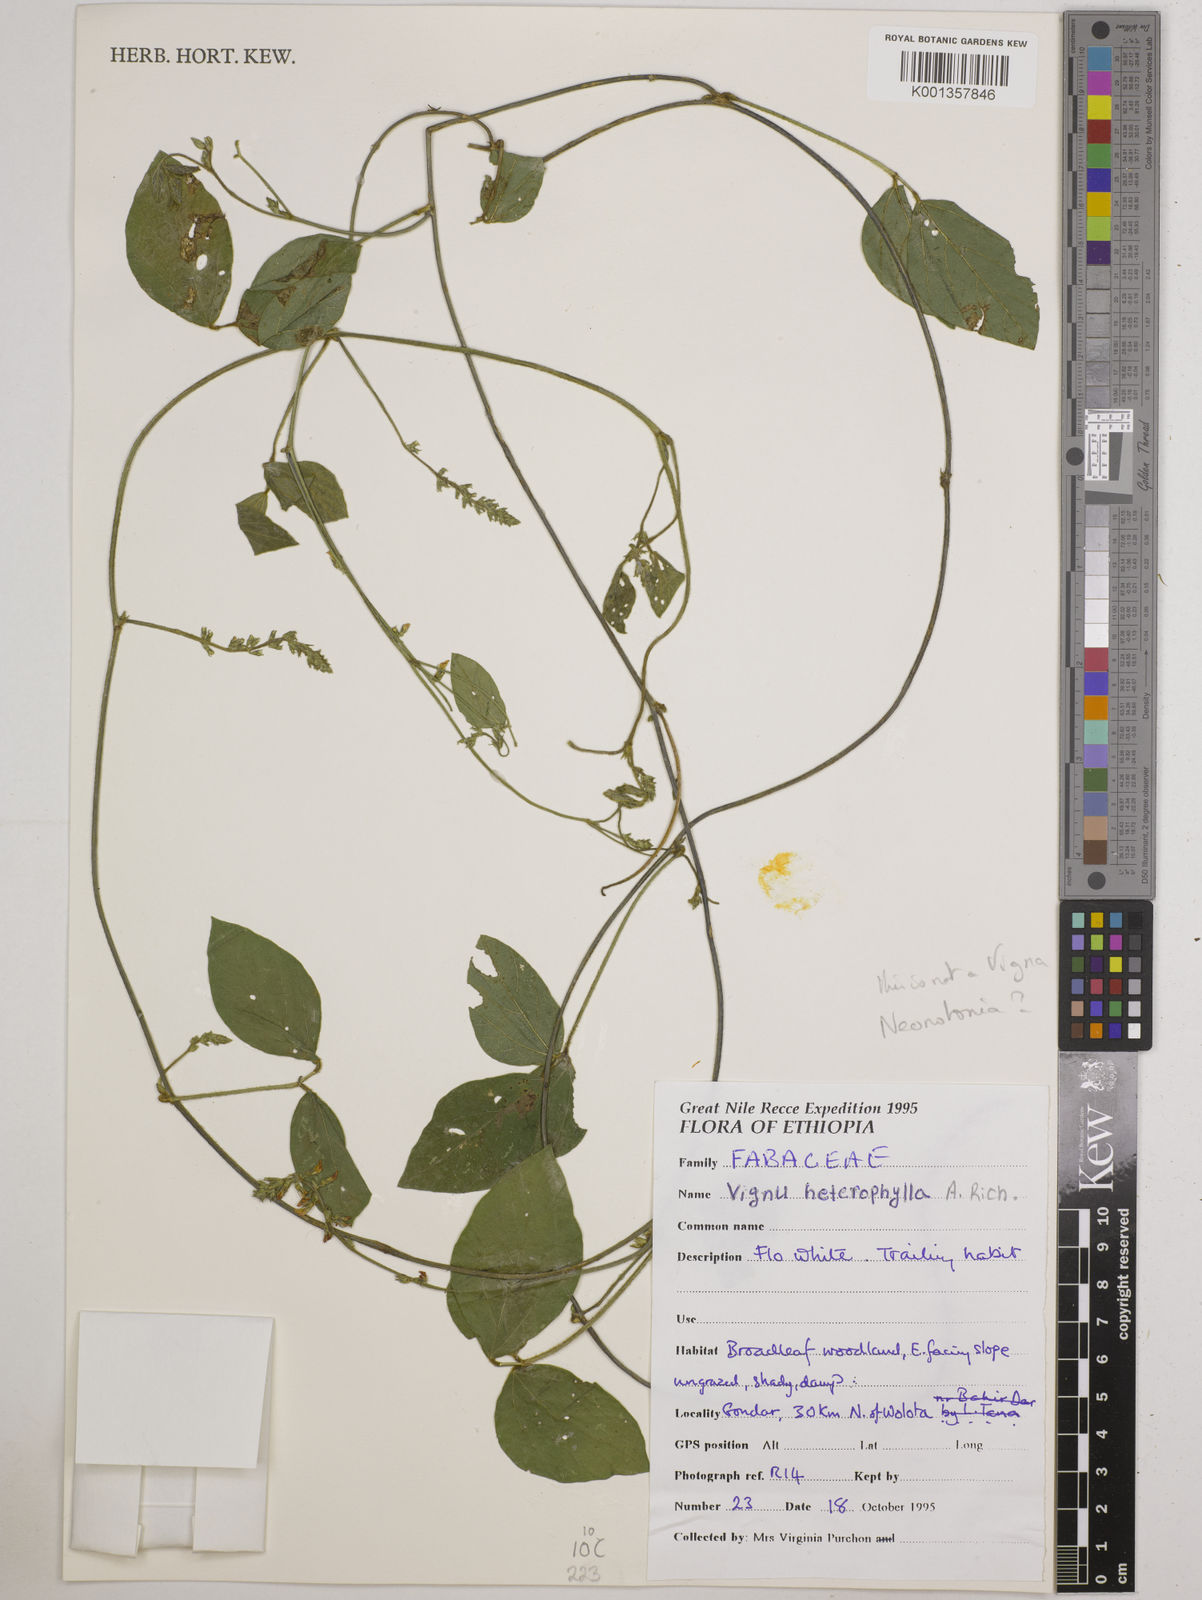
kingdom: Plantae
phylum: Tracheophyta
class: Magnoliopsida
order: Fabales
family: Fabaceae
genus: Vigna
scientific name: Vigna heterophylla
